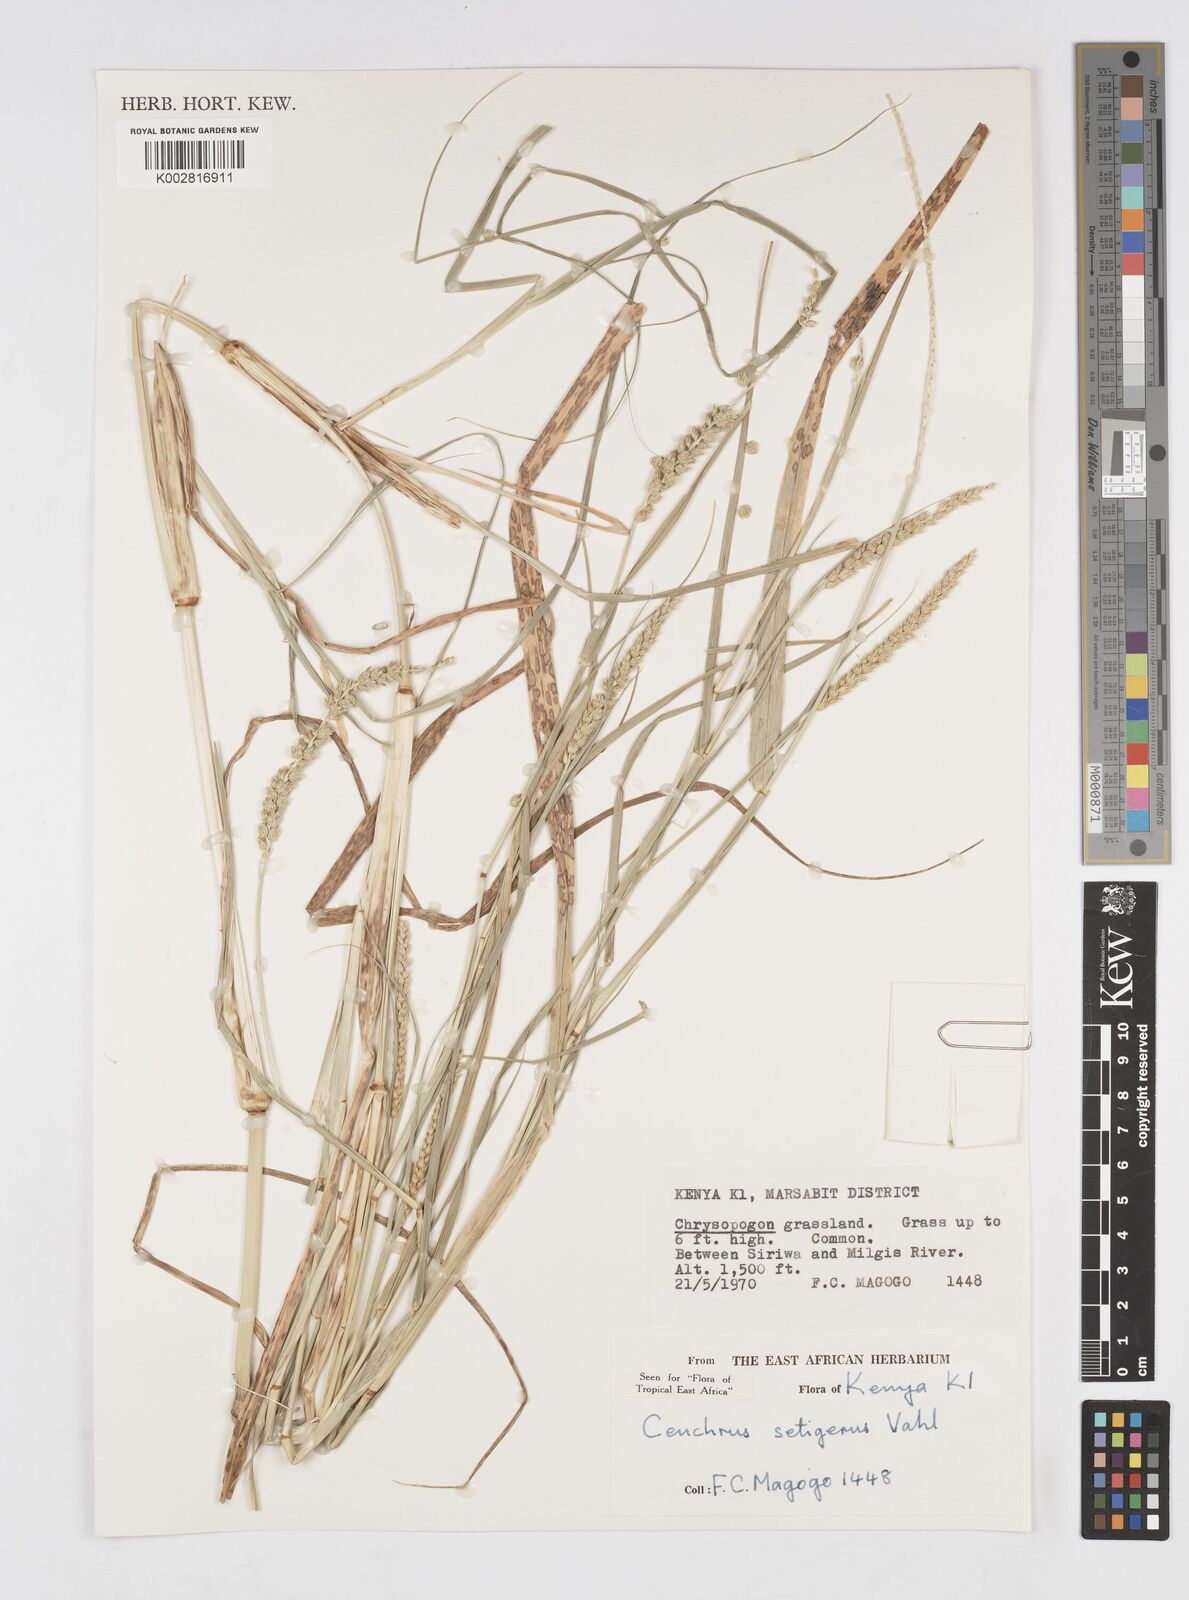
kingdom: Plantae
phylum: Tracheophyta
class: Liliopsida
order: Poales
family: Poaceae
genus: Cenchrus
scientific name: Cenchrus setigerus
